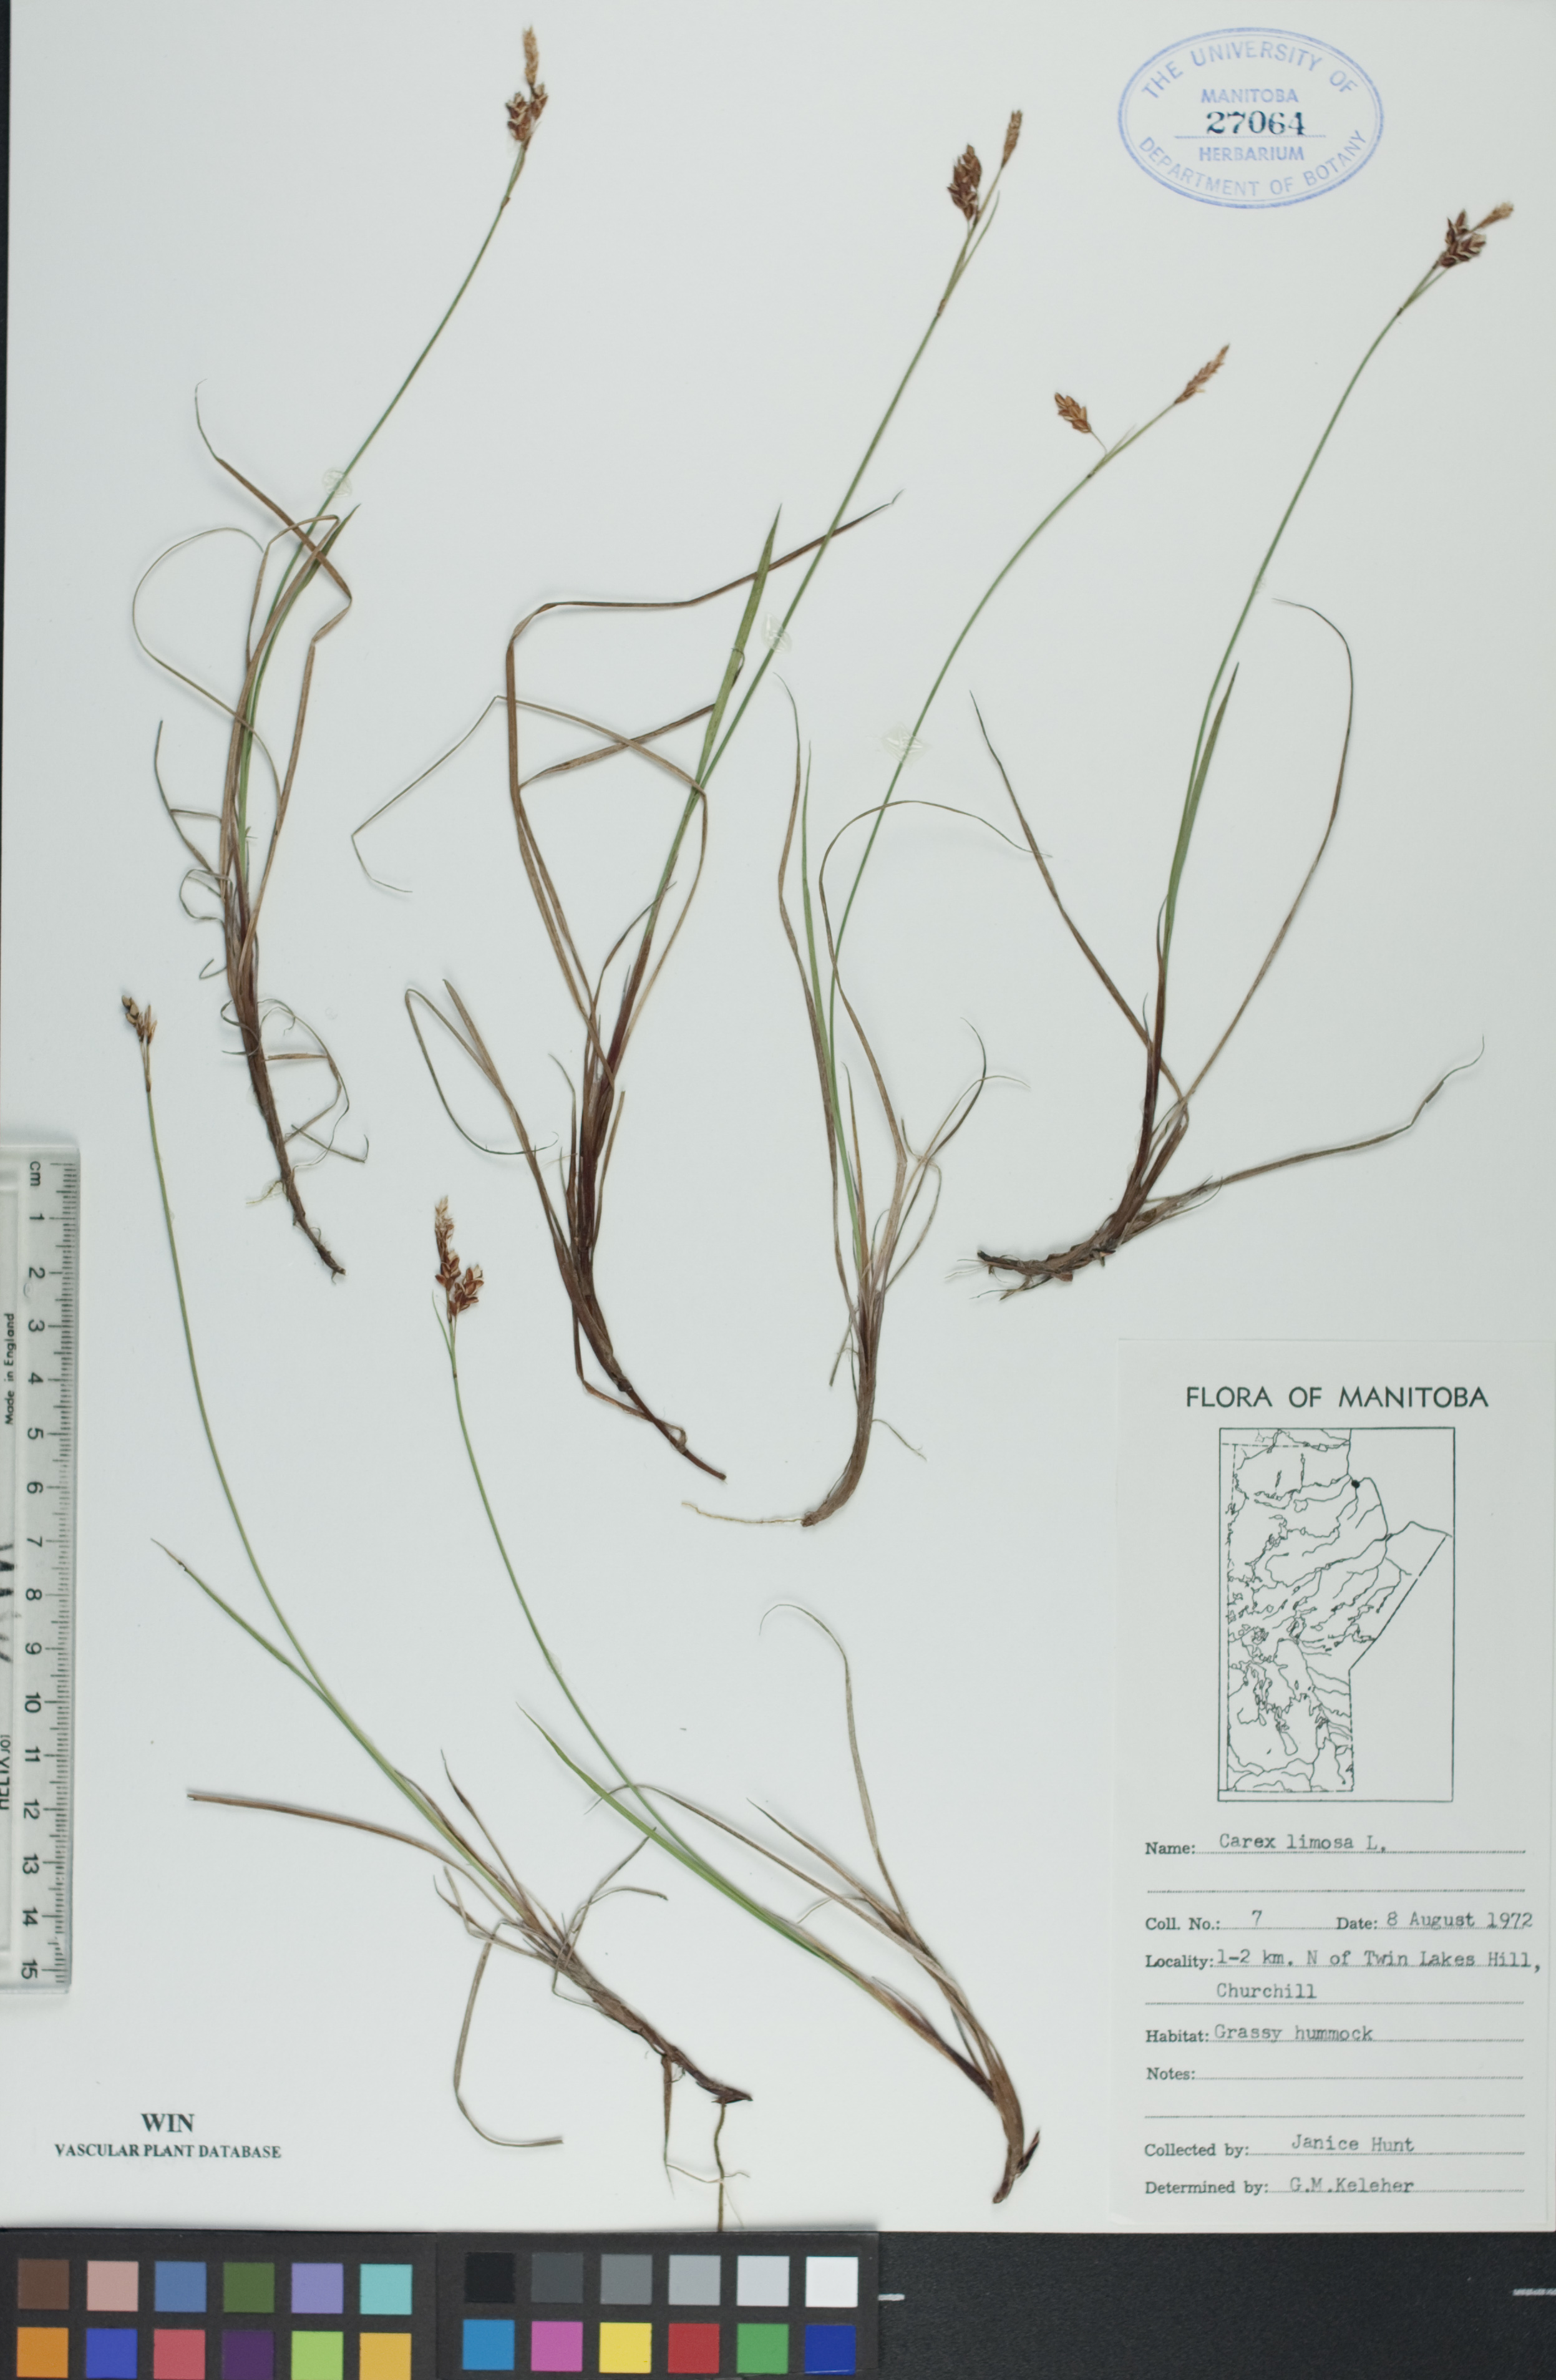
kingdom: Plantae
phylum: Tracheophyta
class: Liliopsida
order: Poales
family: Cyperaceae
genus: Carex
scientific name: Carex limosa
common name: Bog sedge
